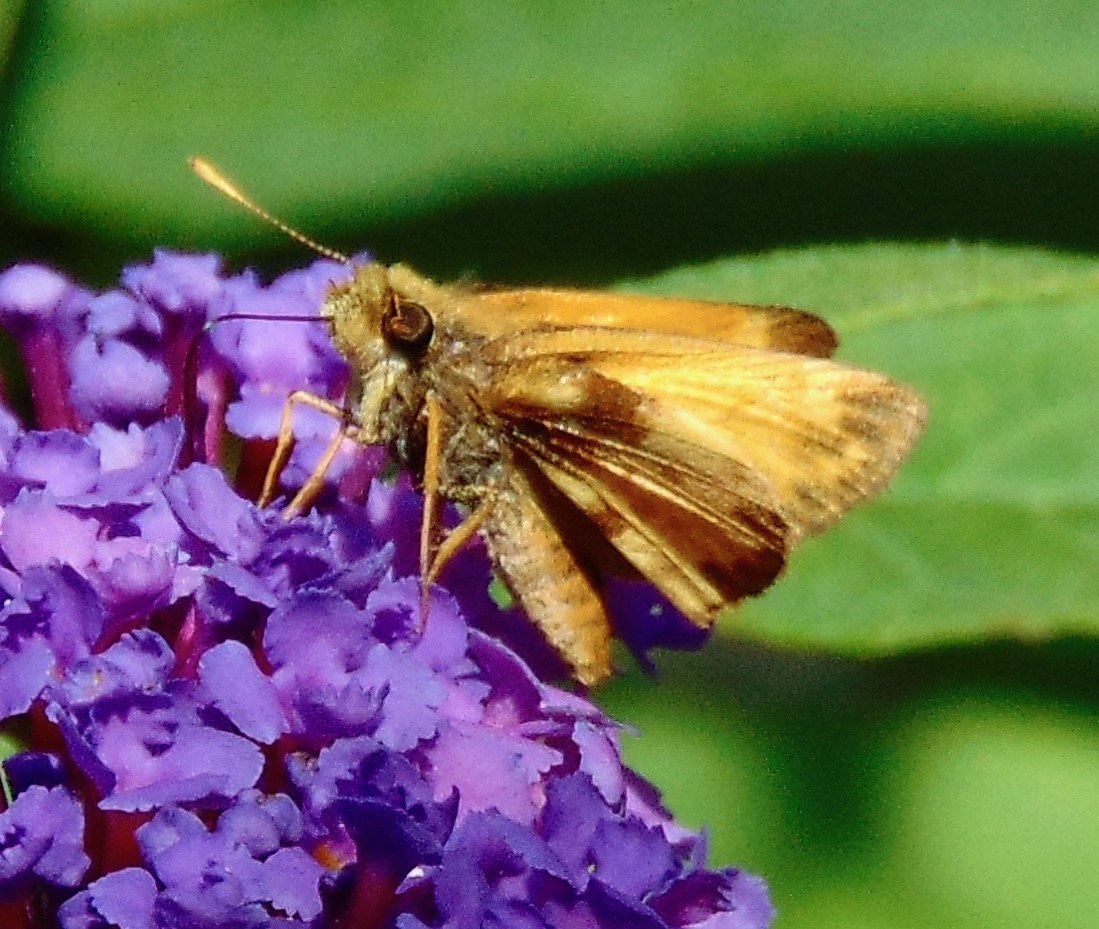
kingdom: Animalia
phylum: Arthropoda
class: Insecta
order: Lepidoptera
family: Hesperiidae
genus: Lon
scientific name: Lon zabulon
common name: Zabulon Skipper
